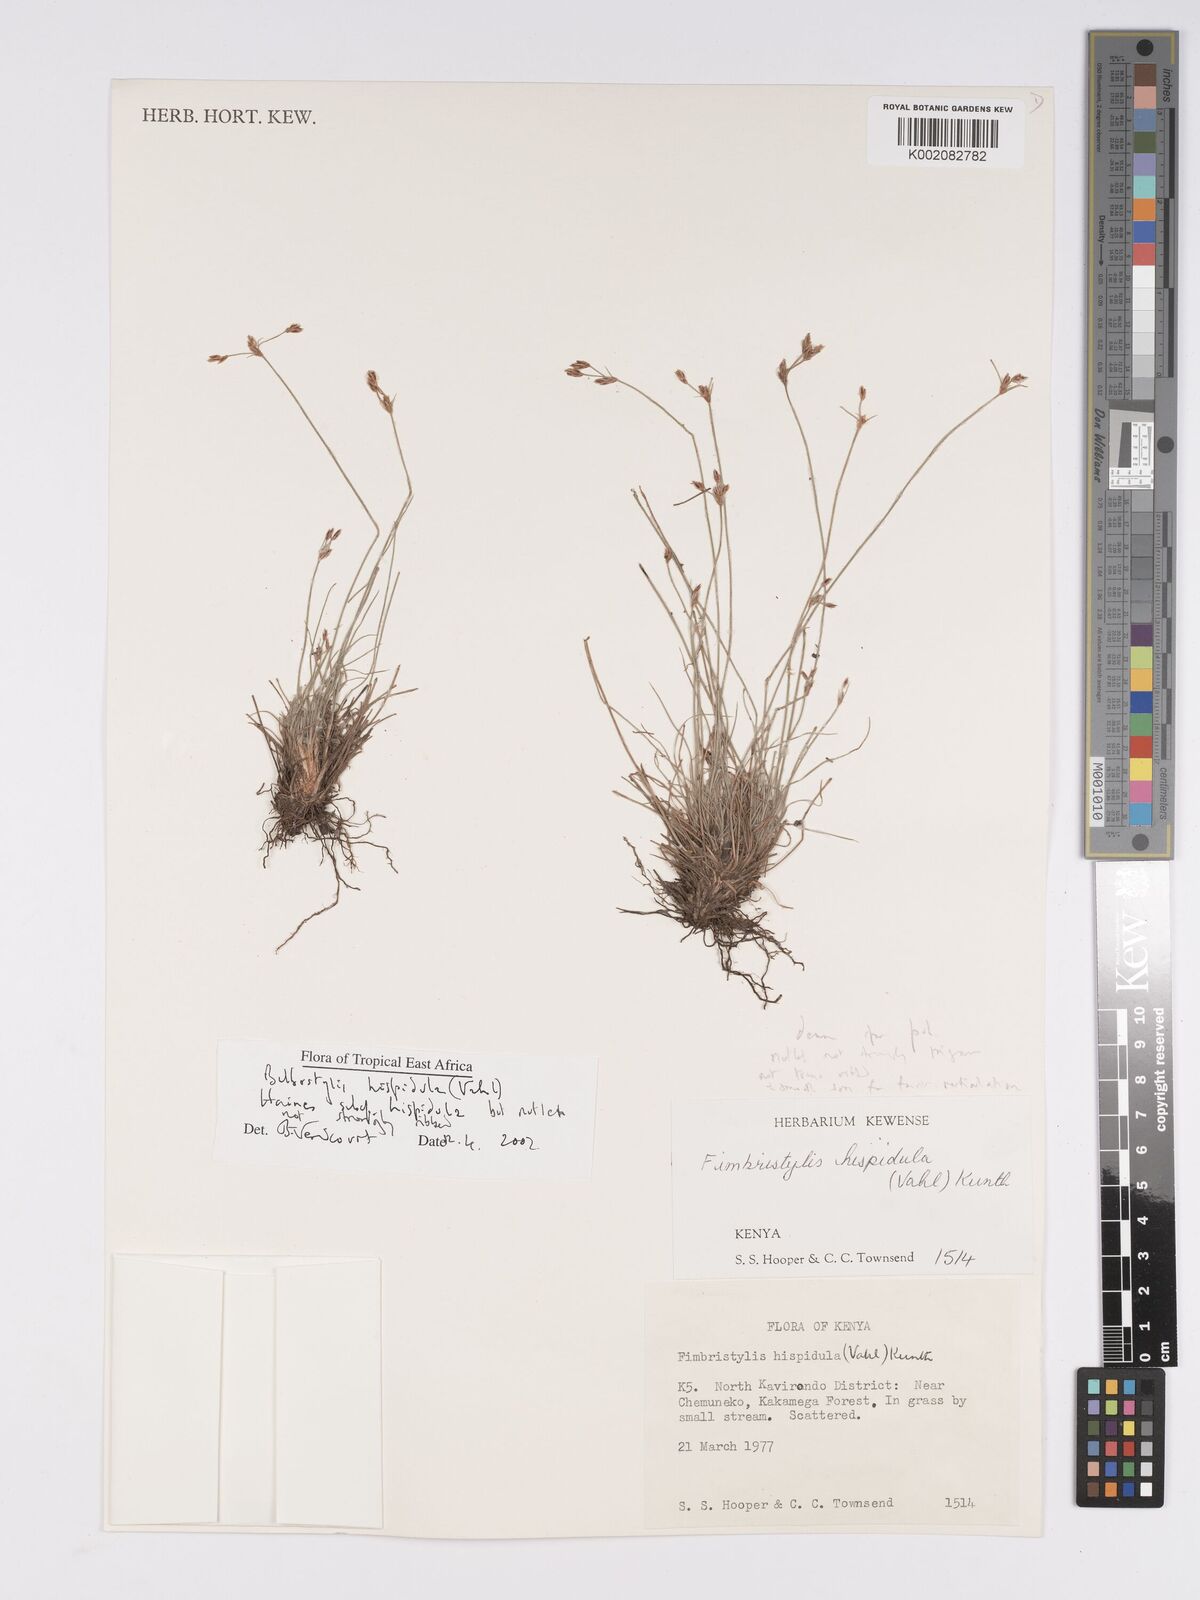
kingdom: Plantae
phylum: Tracheophyta
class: Liliopsida
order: Poales
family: Cyperaceae
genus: Bulbostylis
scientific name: Bulbostylis hispidula
